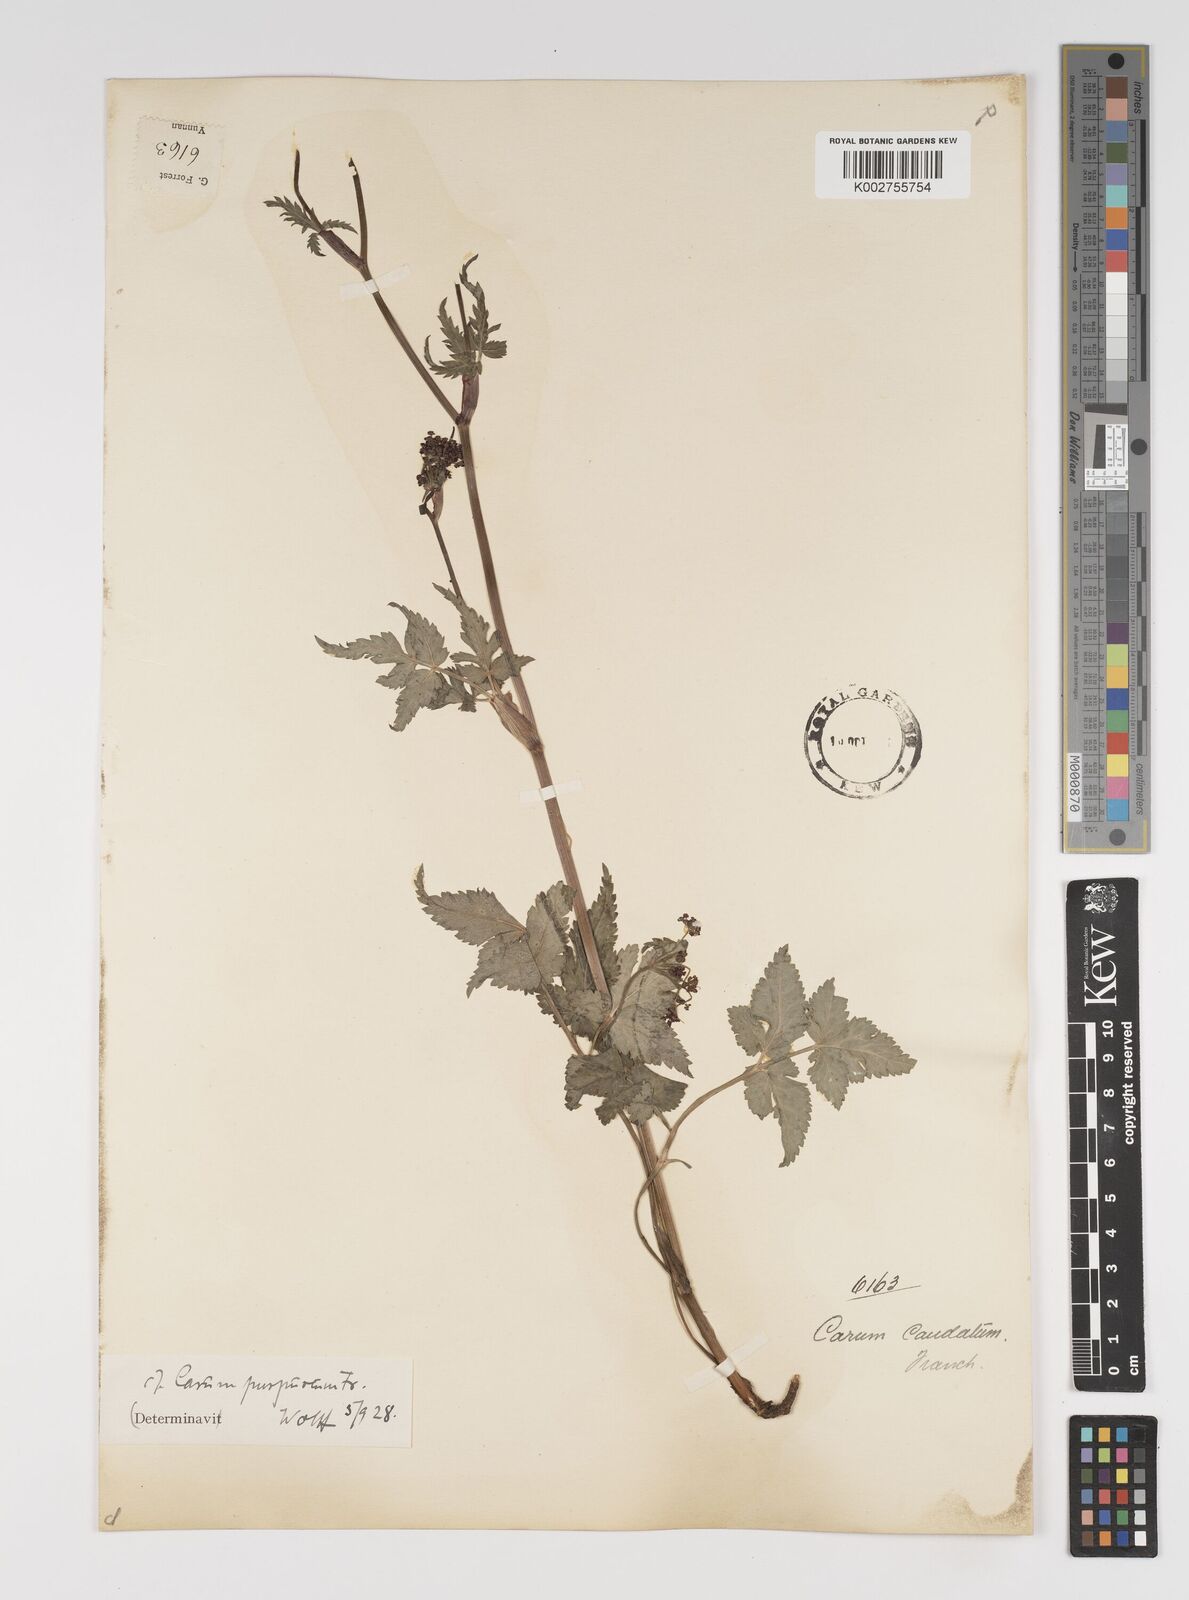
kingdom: Plantae
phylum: Tracheophyta
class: Magnoliopsida
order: Apiales
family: Apiaceae
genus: Pimpinella
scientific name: Pimpinella caudata
